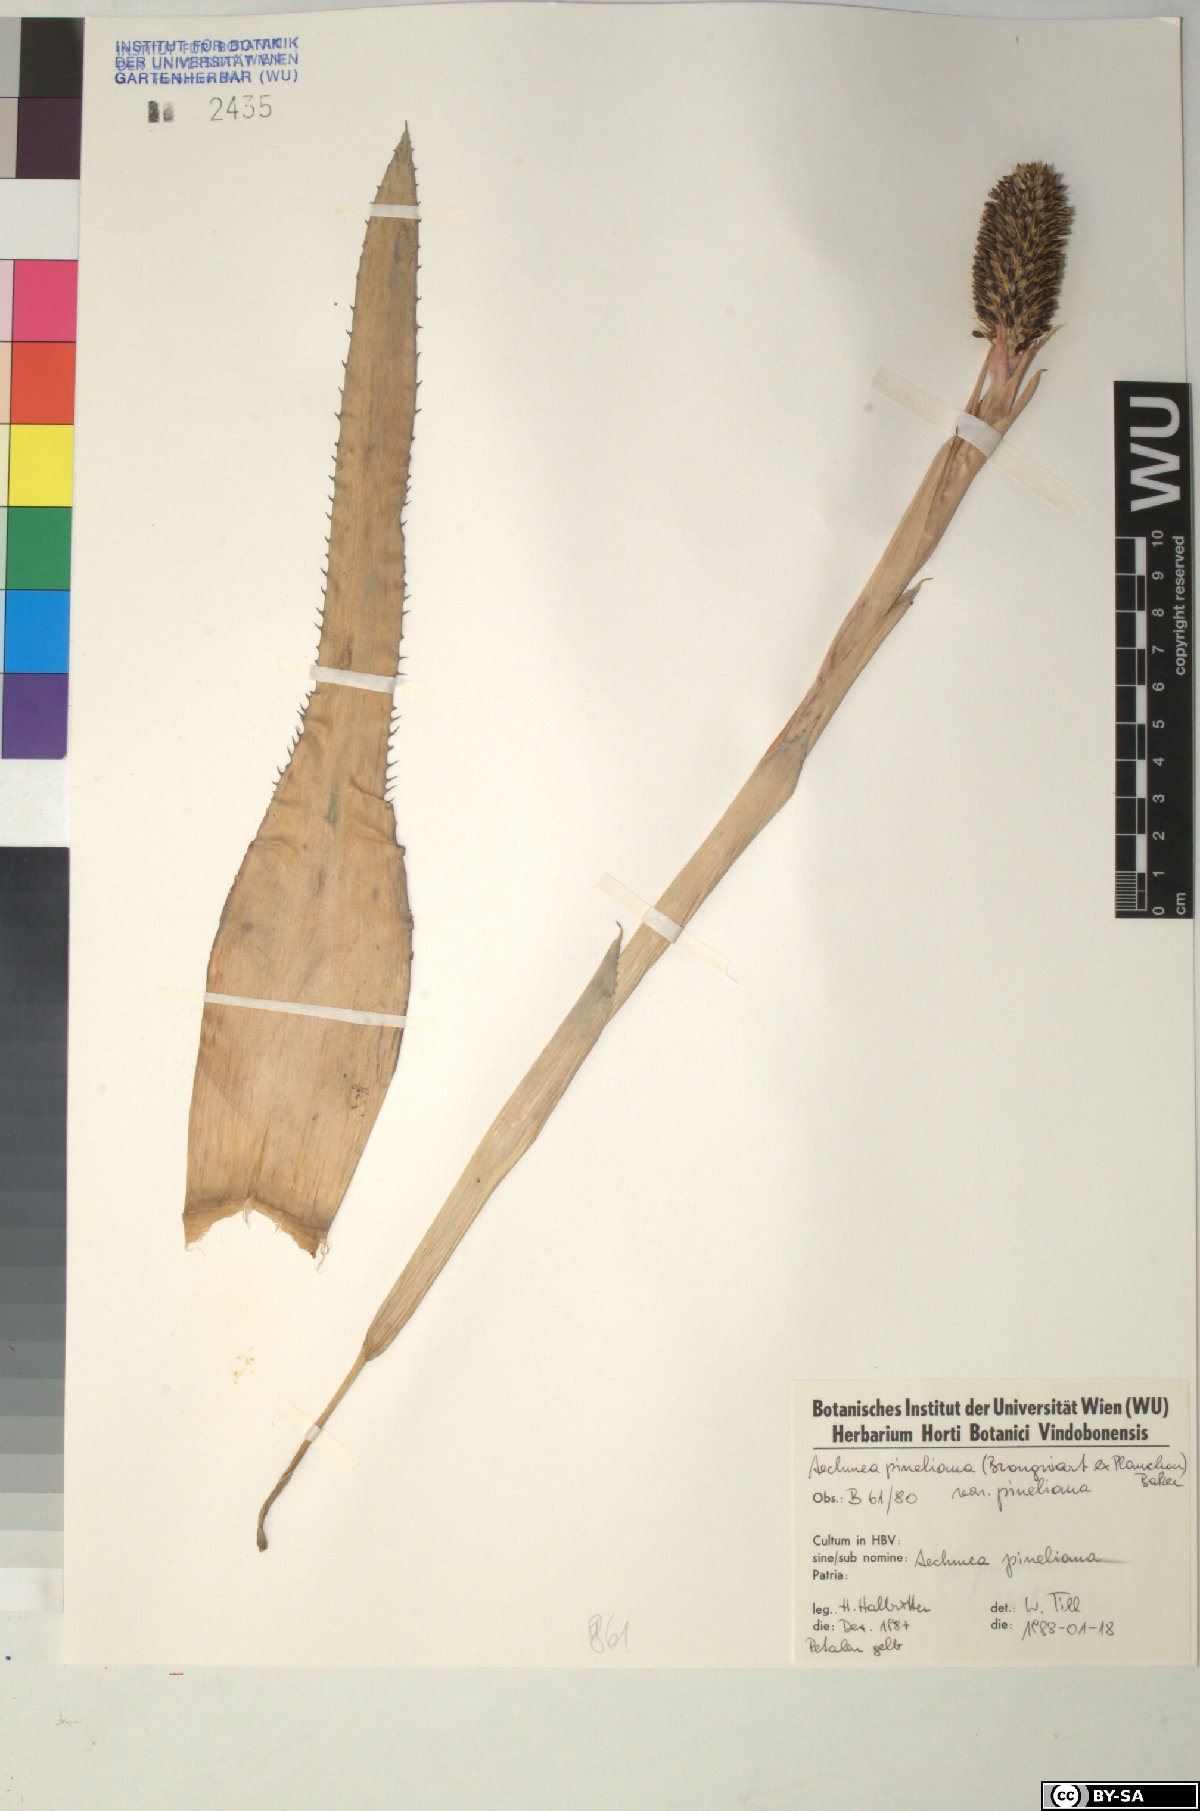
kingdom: Plantae
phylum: Tracheophyta
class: Liliopsida
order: Poales
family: Bromeliaceae
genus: Aechmea
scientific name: Aechmea pineliana
